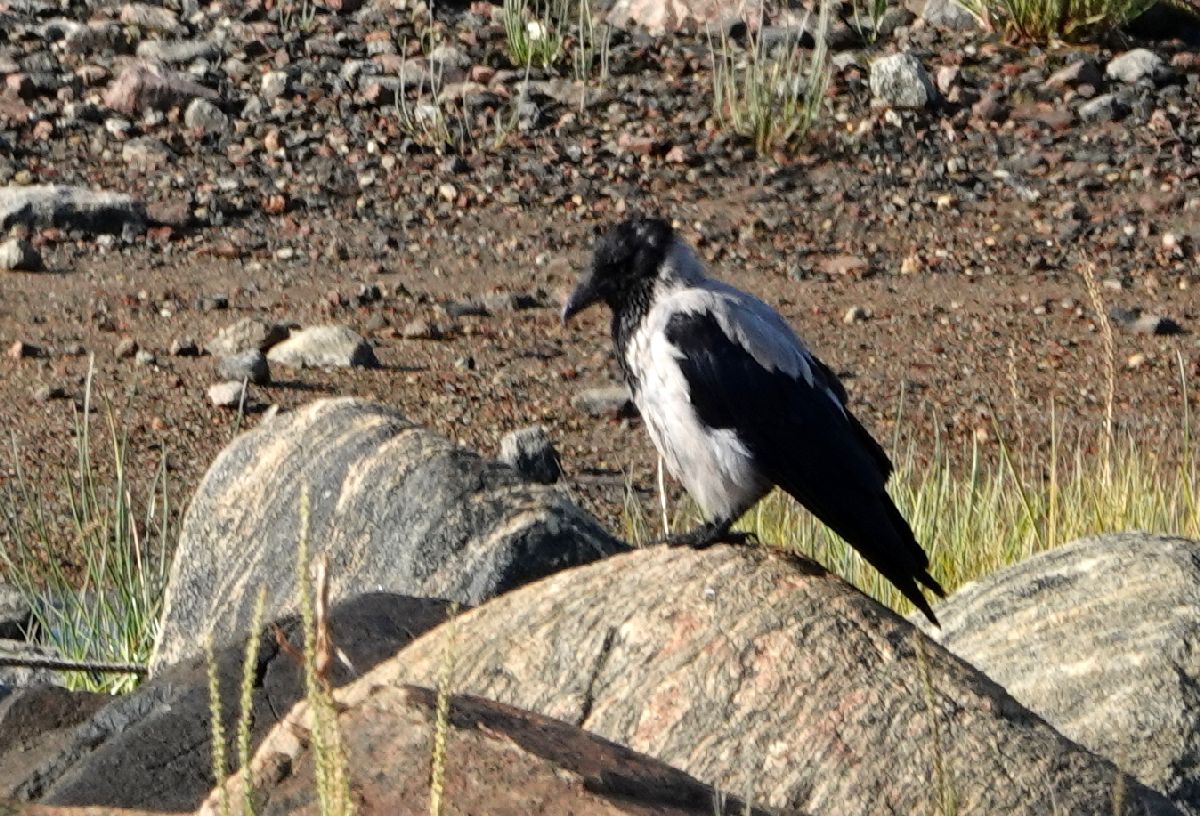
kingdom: Animalia
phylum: Chordata
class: Aves
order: Passeriformes
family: Corvidae
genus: Corvus
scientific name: Corvus cornix
